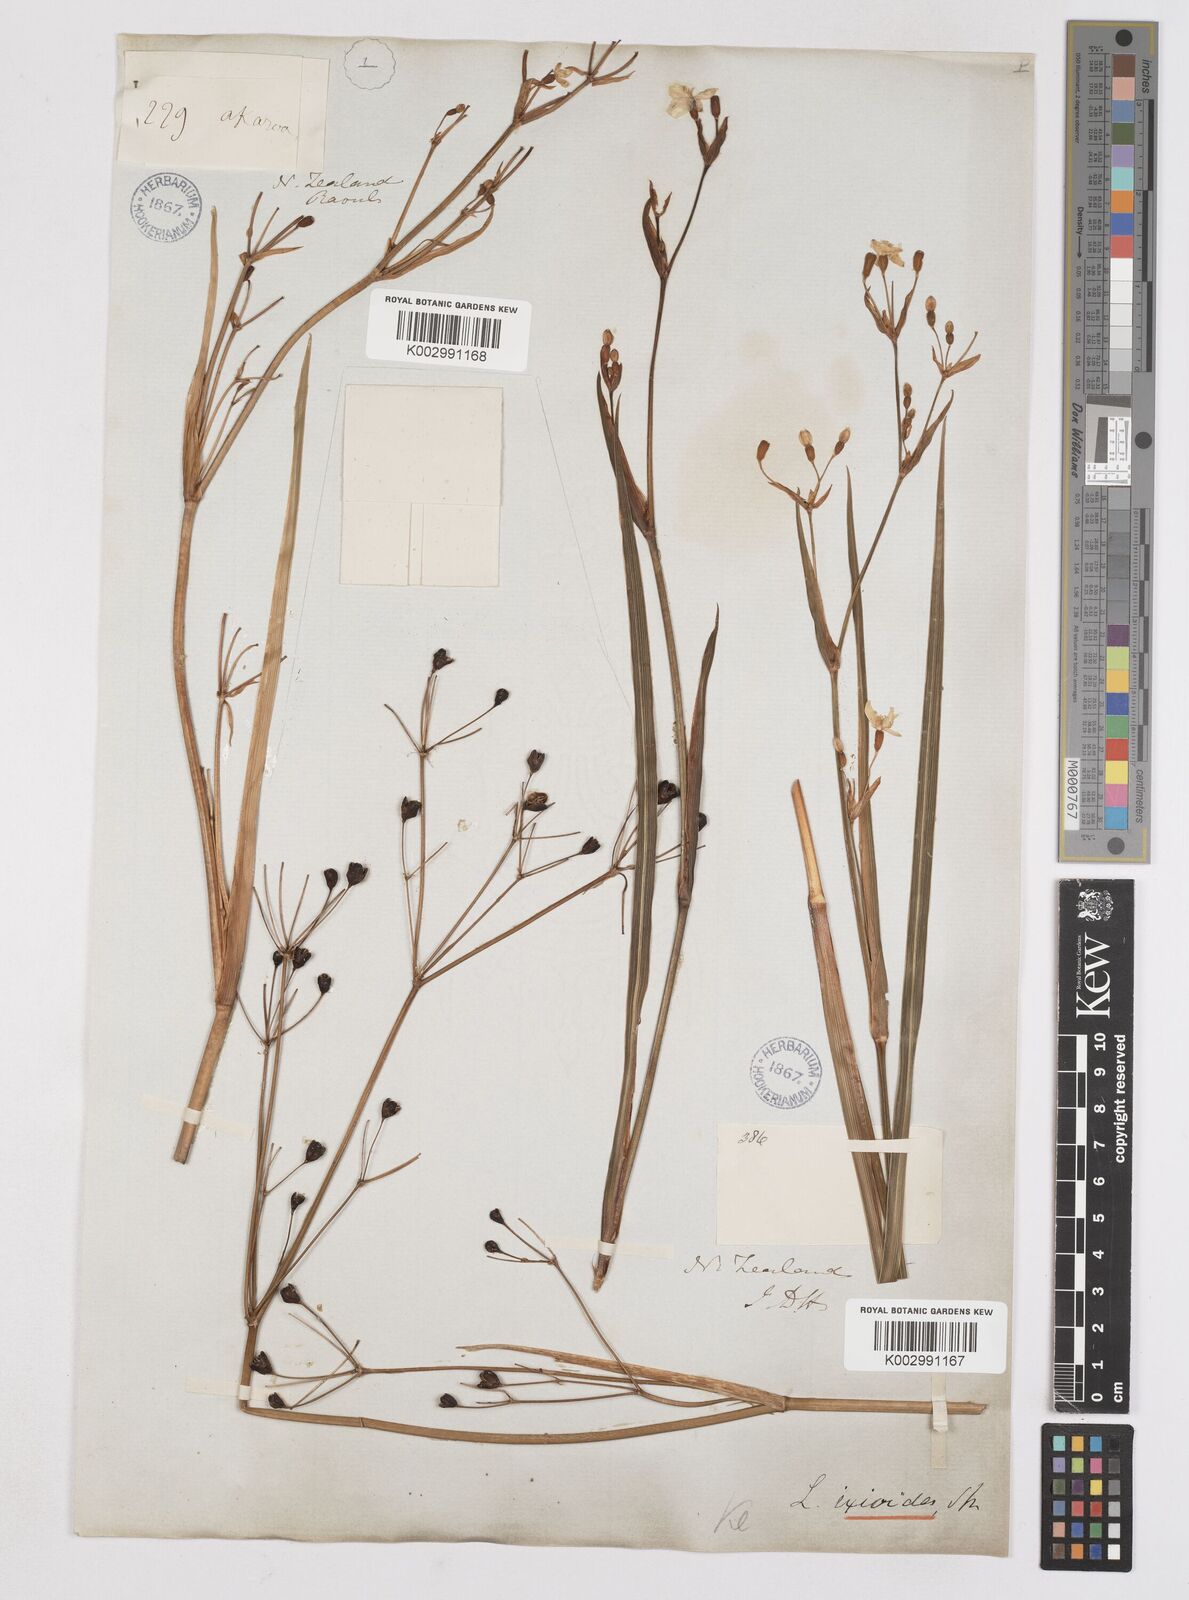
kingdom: Plantae
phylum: Tracheophyta
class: Liliopsida
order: Asparagales
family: Iridaceae
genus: Libertia
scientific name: Libertia
